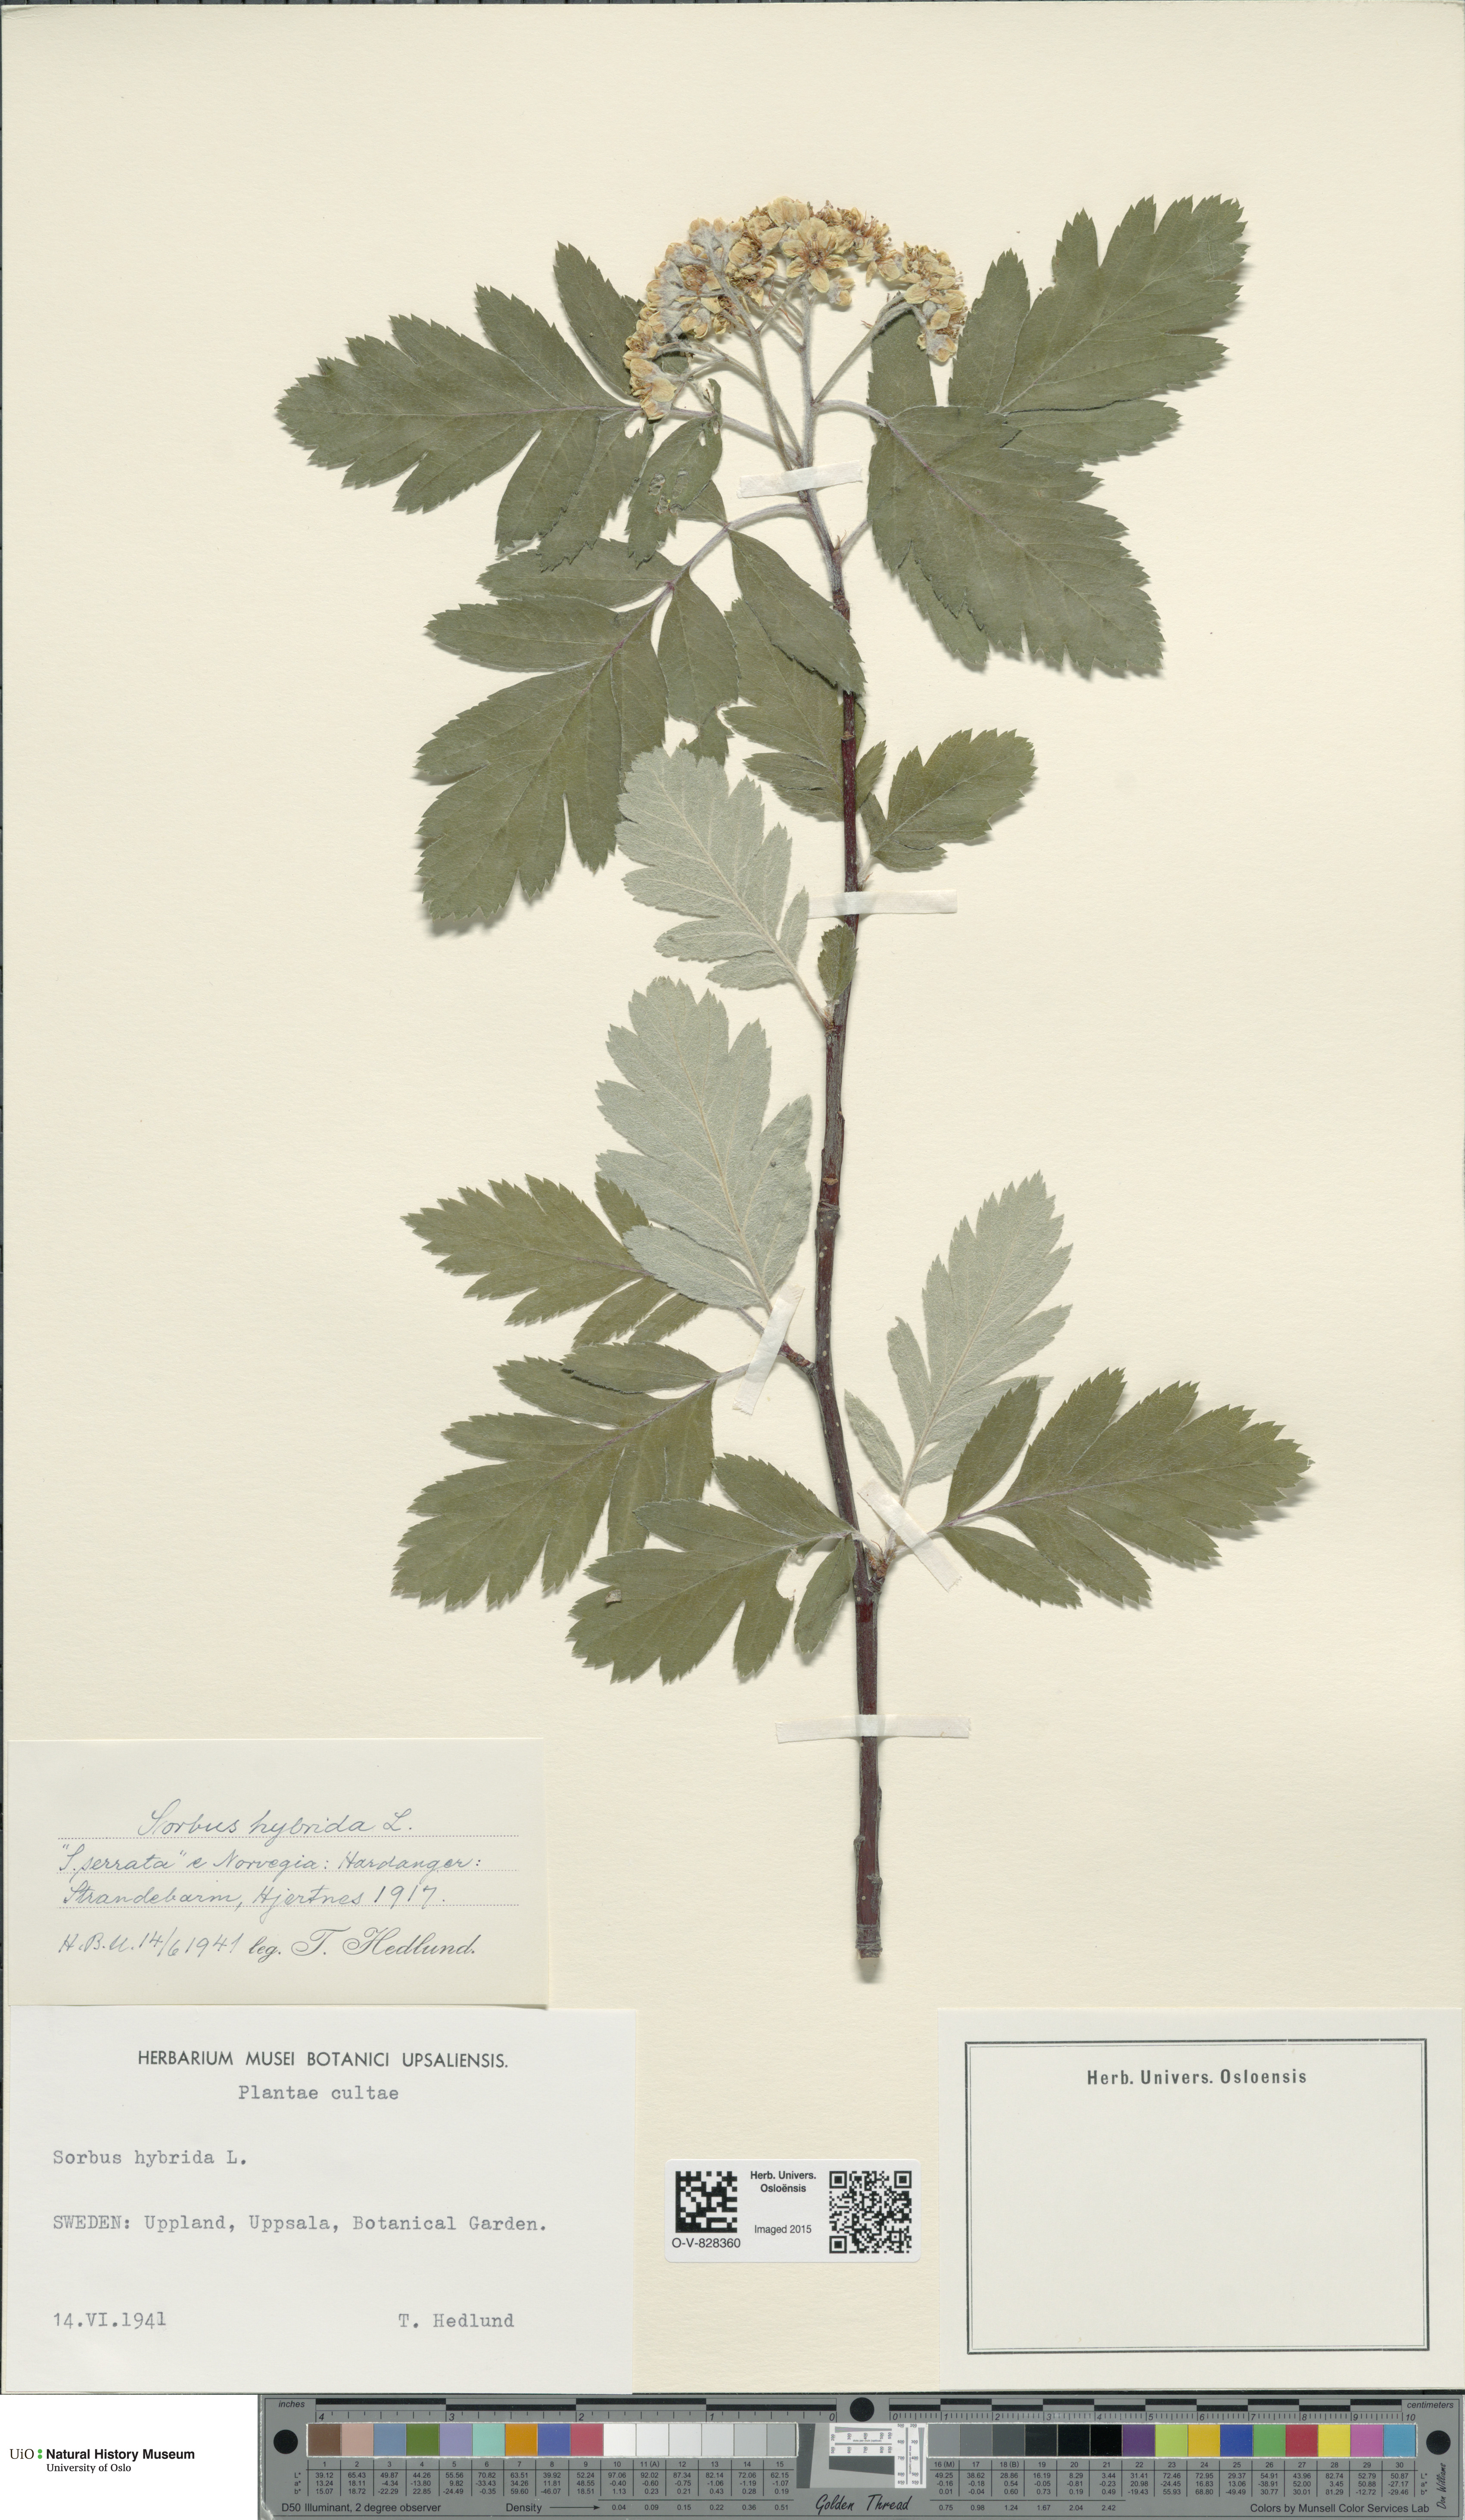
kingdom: Plantae
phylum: Tracheophyta
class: Magnoliopsida
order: Rosales
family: Rosaceae
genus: Hedlundia
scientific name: Hedlundia hybrida
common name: Swedish service-tree
